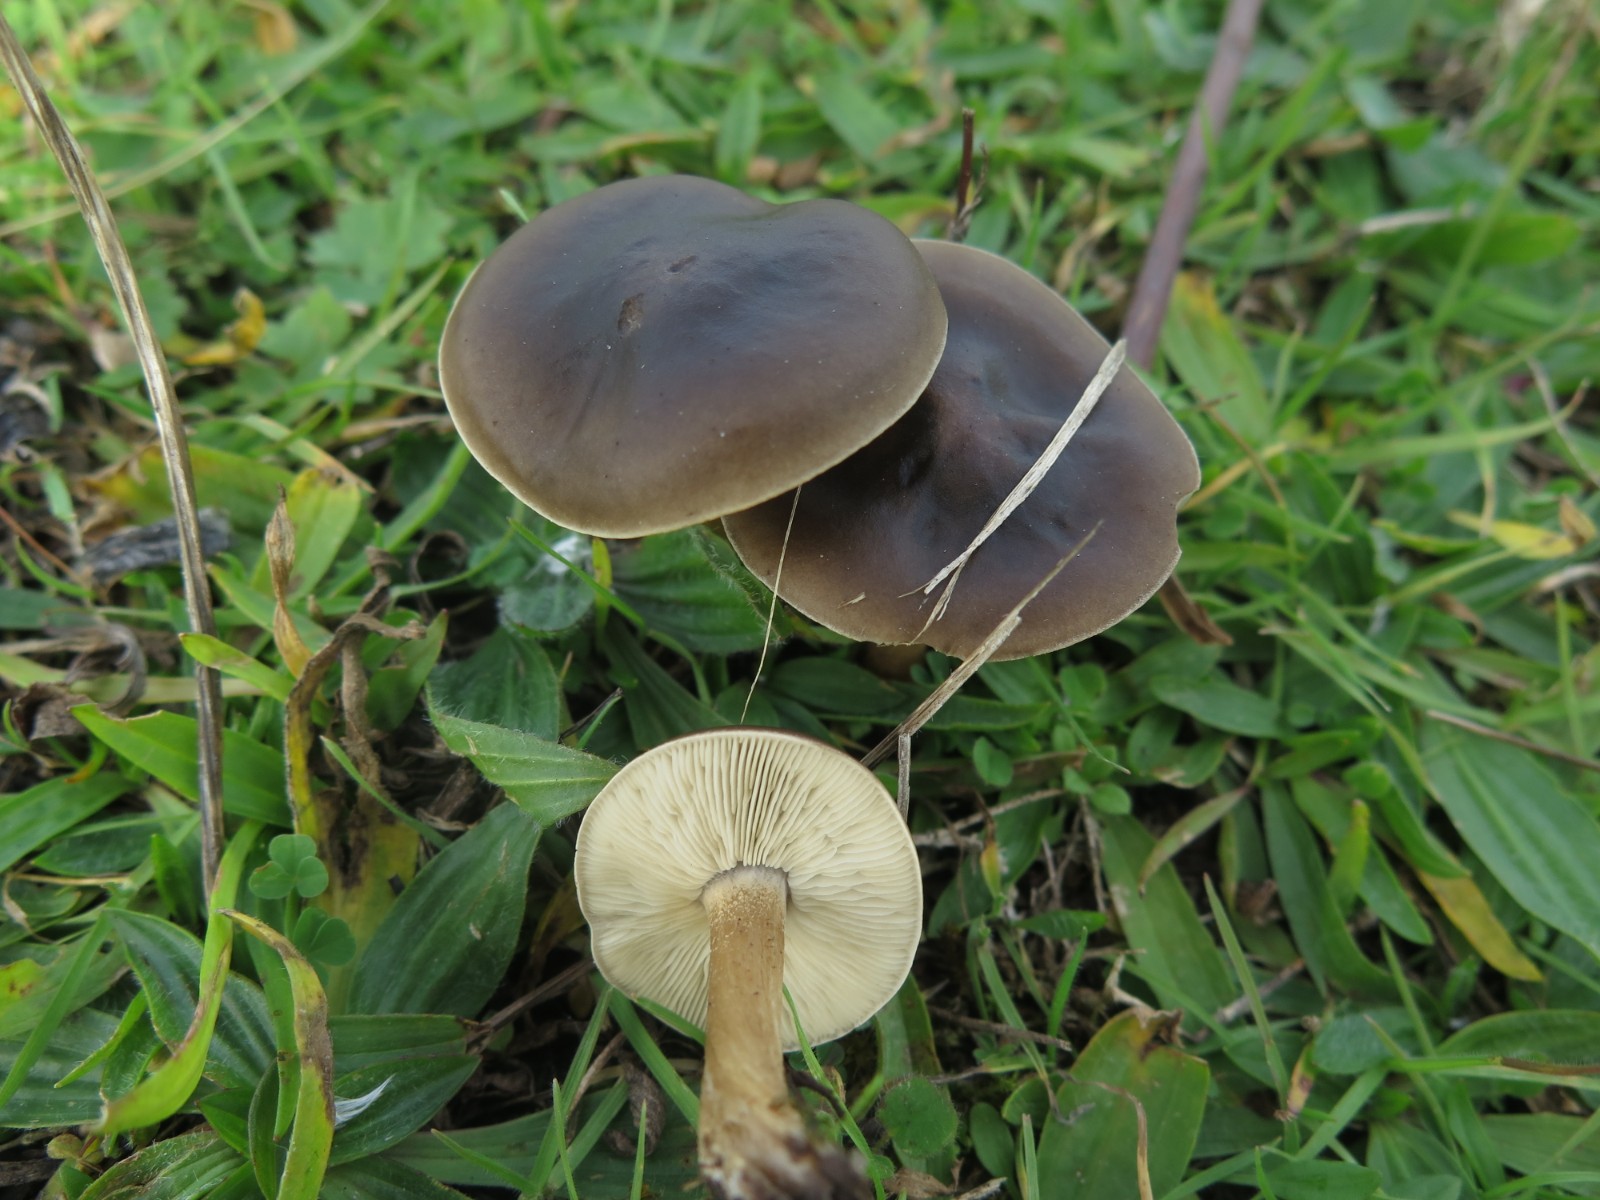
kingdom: Fungi
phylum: Basidiomycota
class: Agaricomycetes
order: Agaricales
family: Tricholomataceae
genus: Melanoleuca
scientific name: Melanoleuca polioleuca
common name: almindelig munkehat
